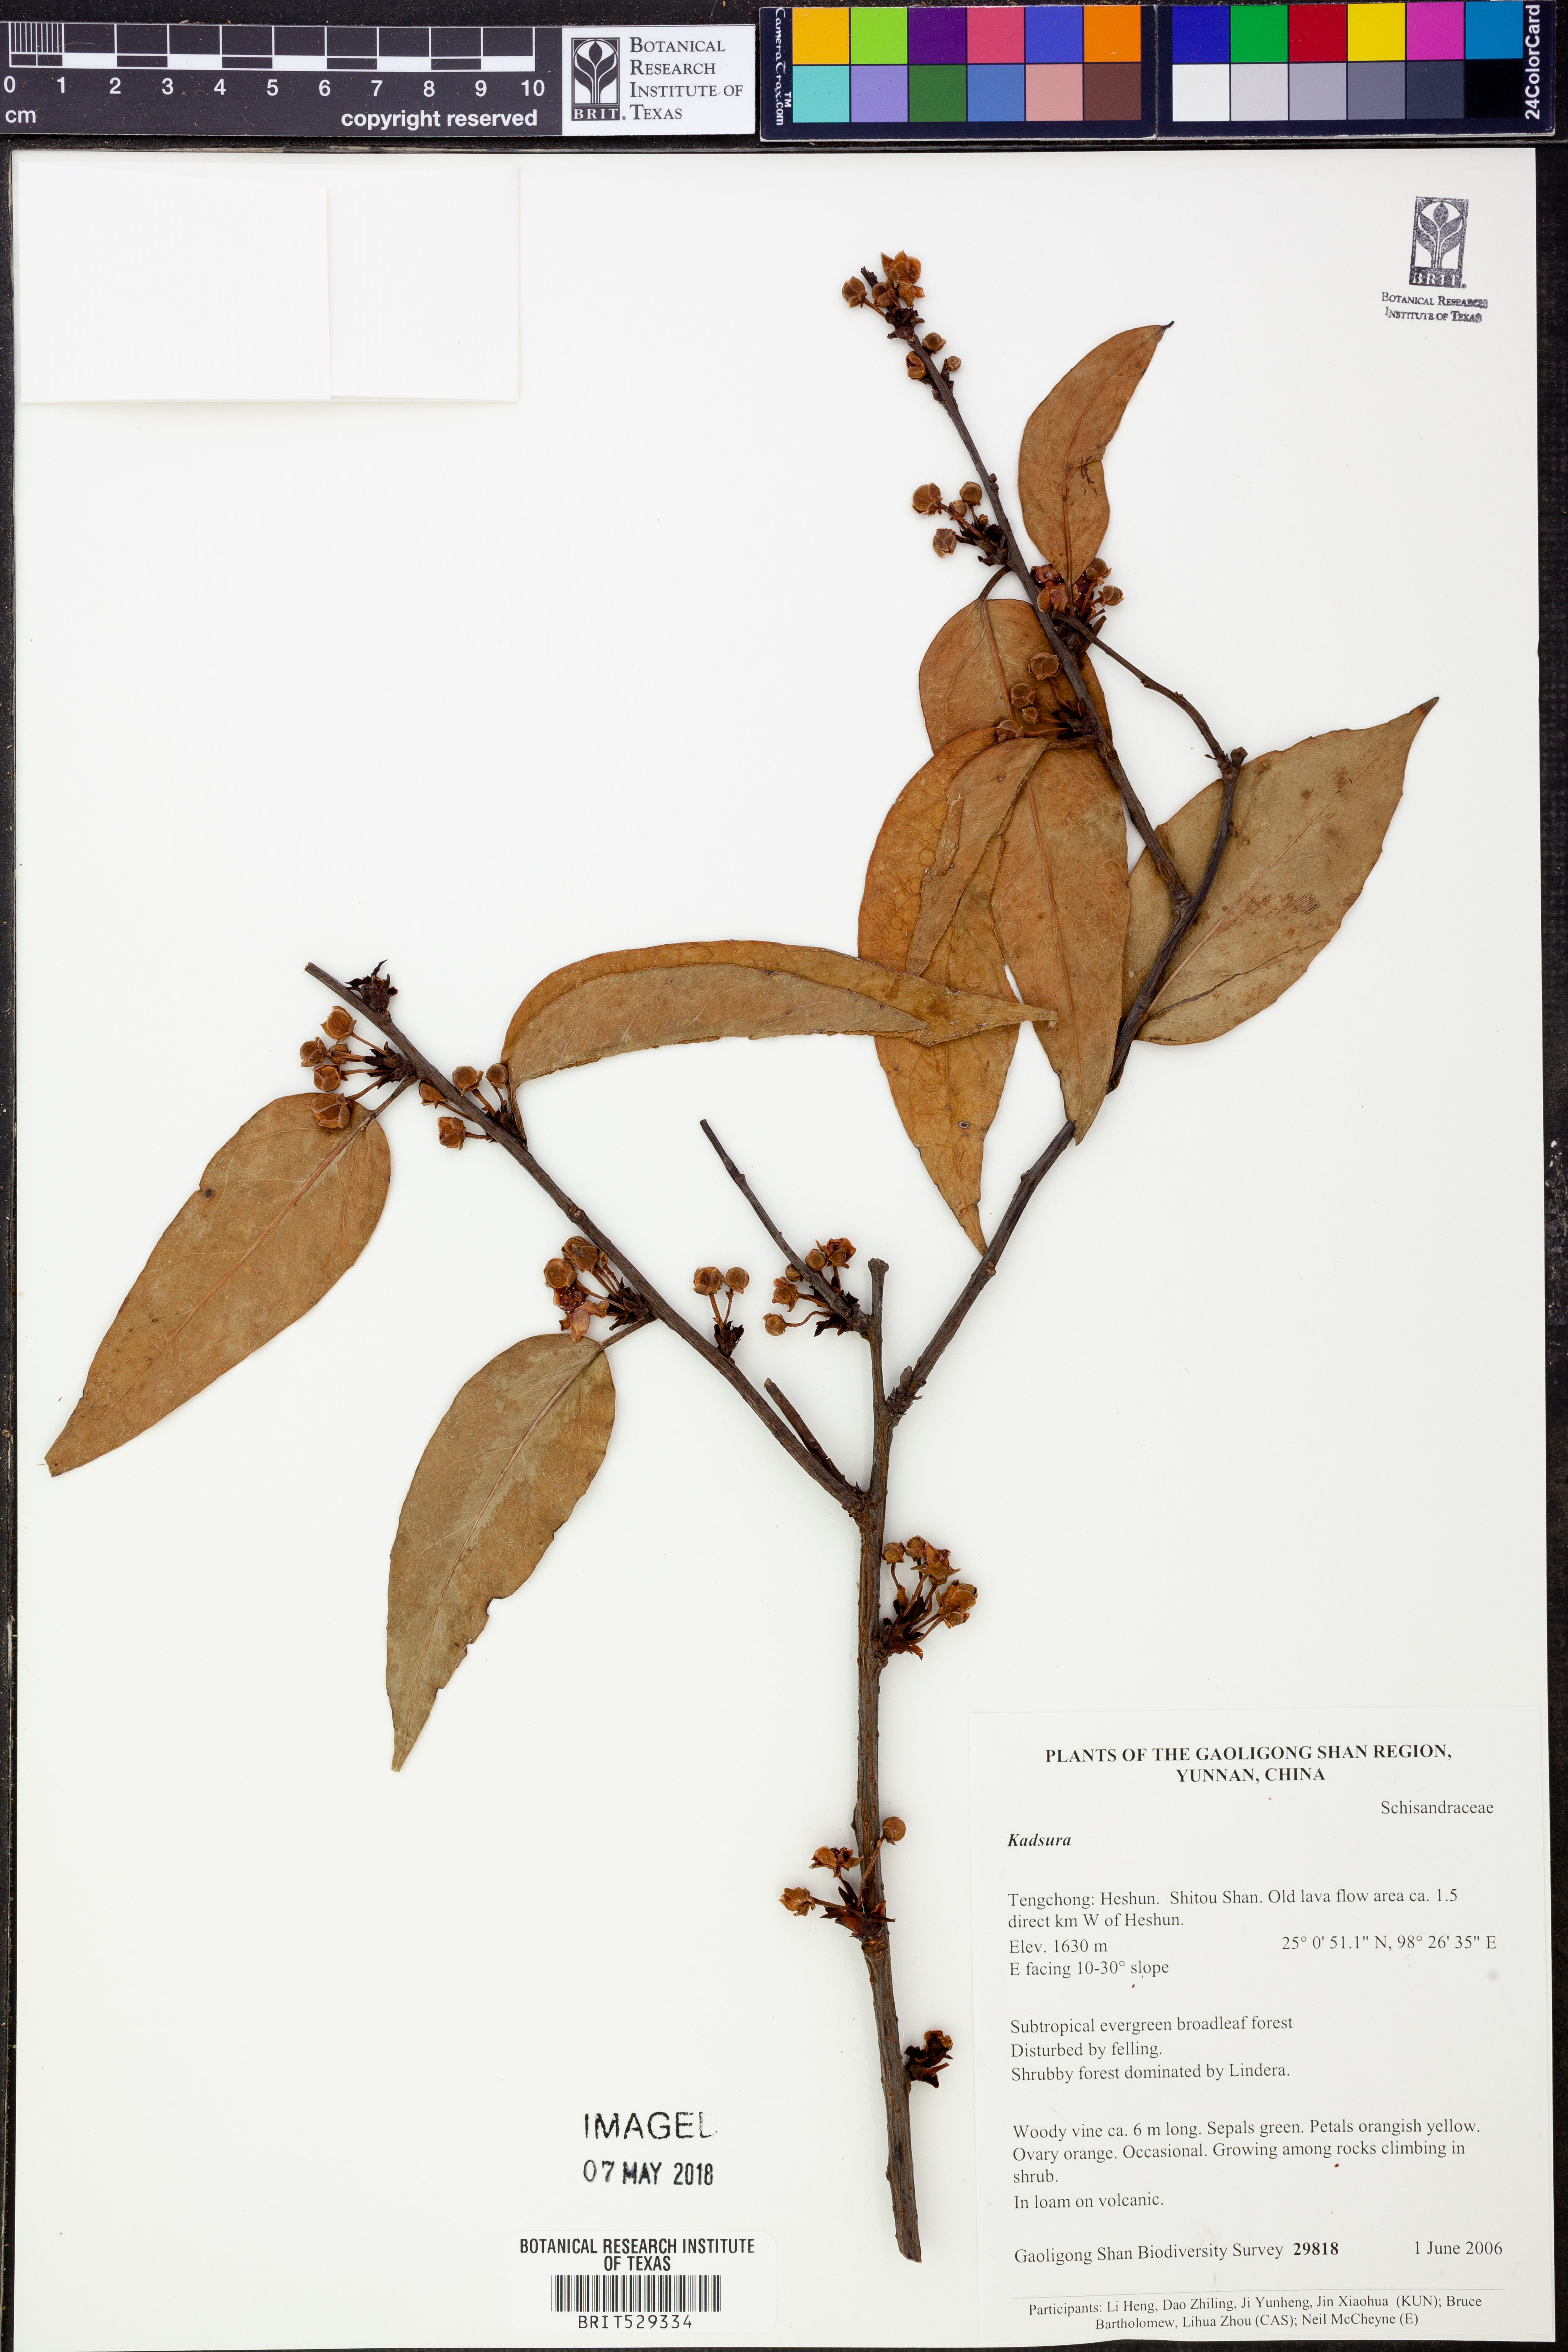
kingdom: Plantae
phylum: Tracheophyta
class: Magnoliopsida
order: Austrobaileyales
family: Schisandraceae
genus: Kadsura
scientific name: Kadsura
